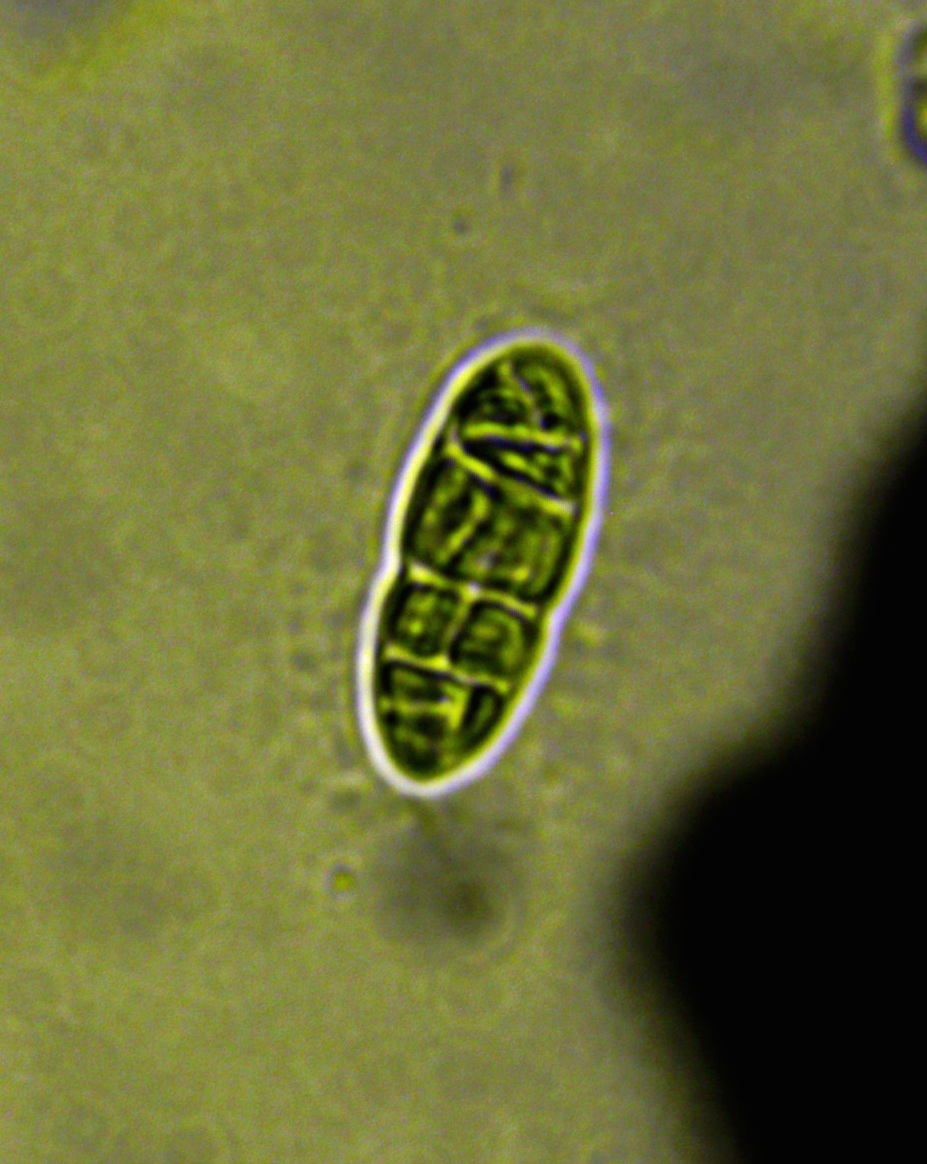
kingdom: Fungi
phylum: Ascomycota
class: Dothideomycetes
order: Hysteriales
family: Hysteriaceae
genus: Hysterobrevium
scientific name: Hysterobrevium smilacis
